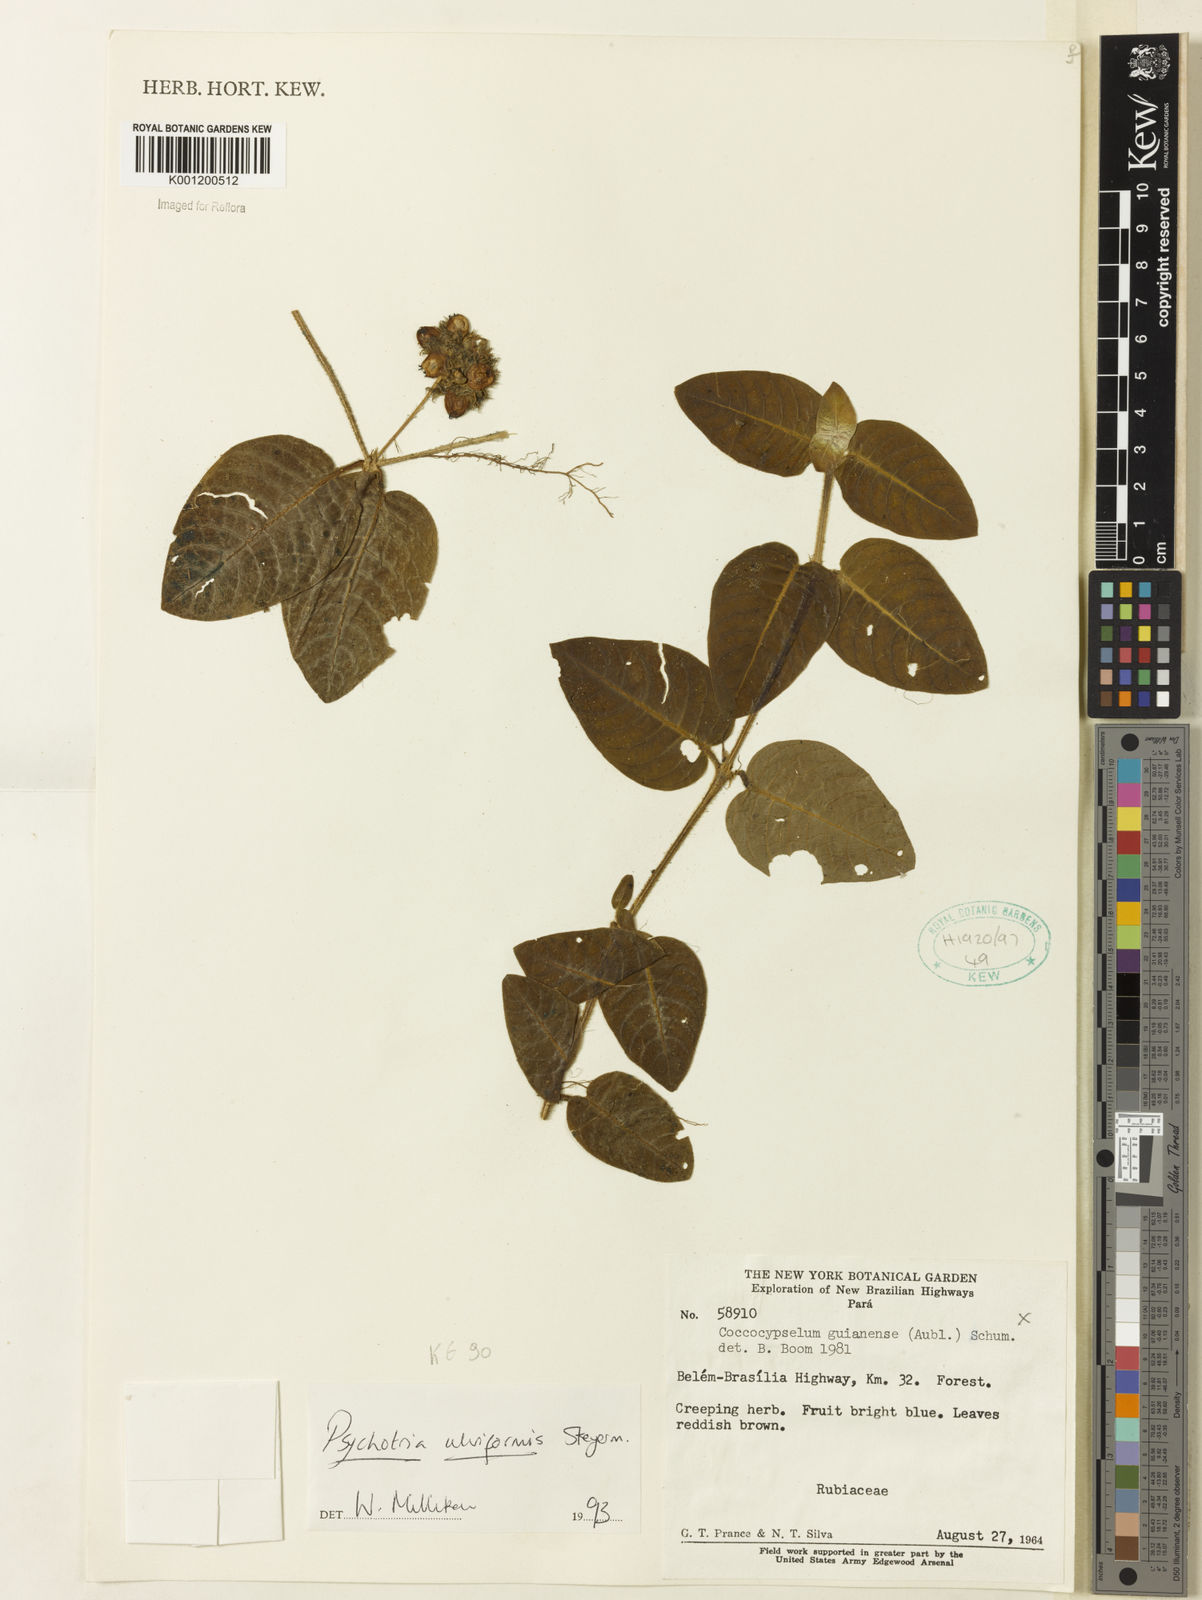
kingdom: Plantae
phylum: Tracheophyta
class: Magnoliopsida
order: Gentianales
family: Rubiaceae
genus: Palicourea
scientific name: Palicourea alba
